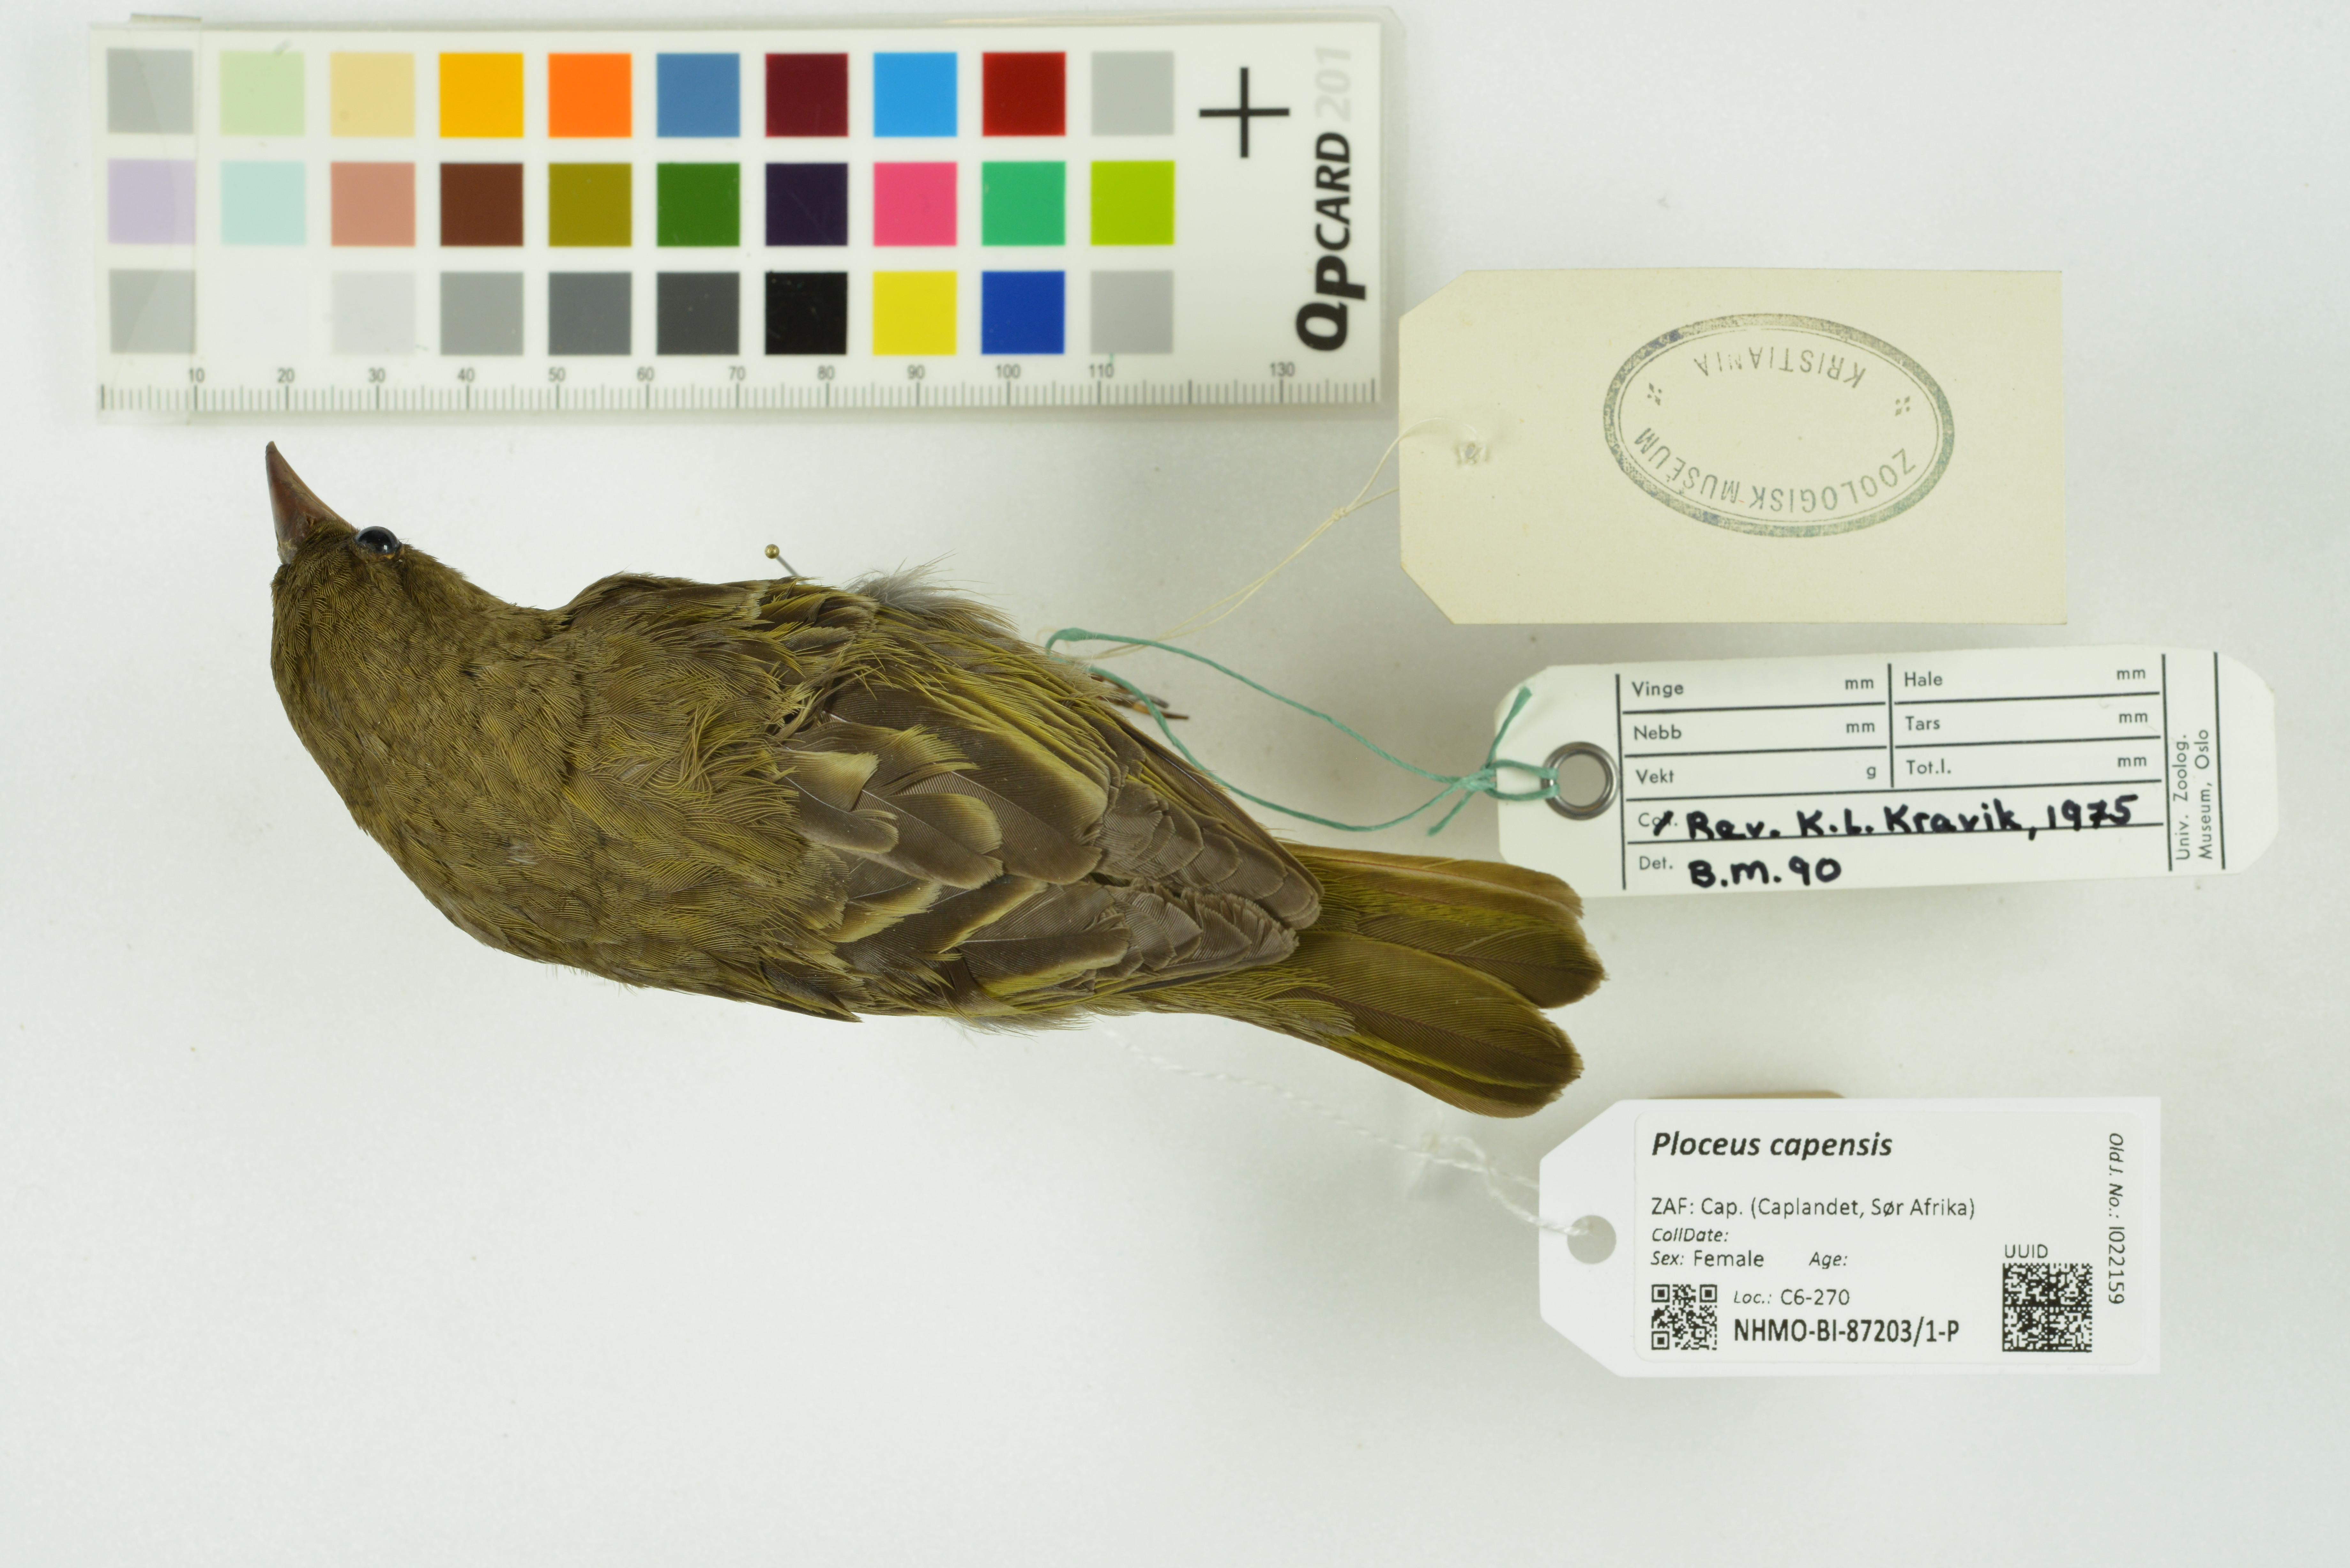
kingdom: Animalia
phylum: Chordata
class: Aves
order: Passeriformes
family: Ploceidae
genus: Ploceus
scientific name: Ploceus capensis
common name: Cape weaver
